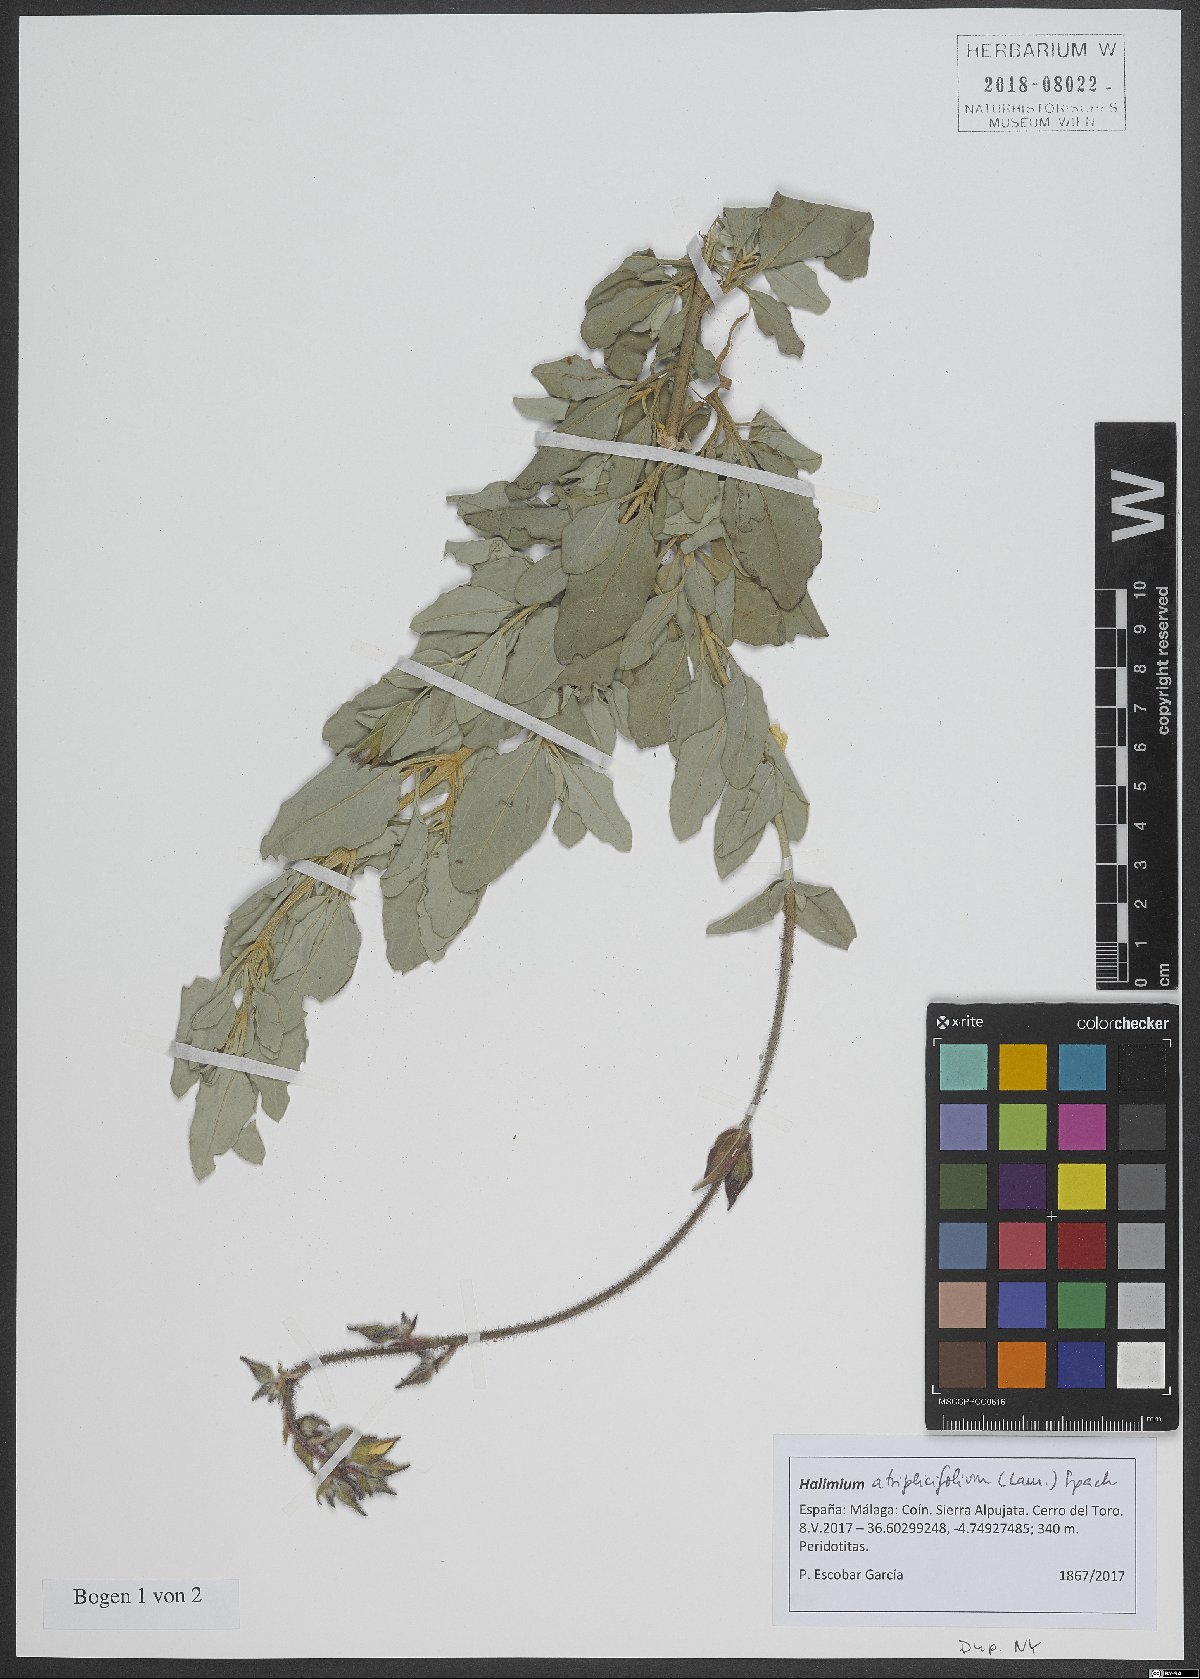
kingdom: Plantae
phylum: Tracheophyta
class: Magnoliopsida
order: Malvales
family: Cistaceae
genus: Halimium
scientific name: Halimium atriplicifolium
